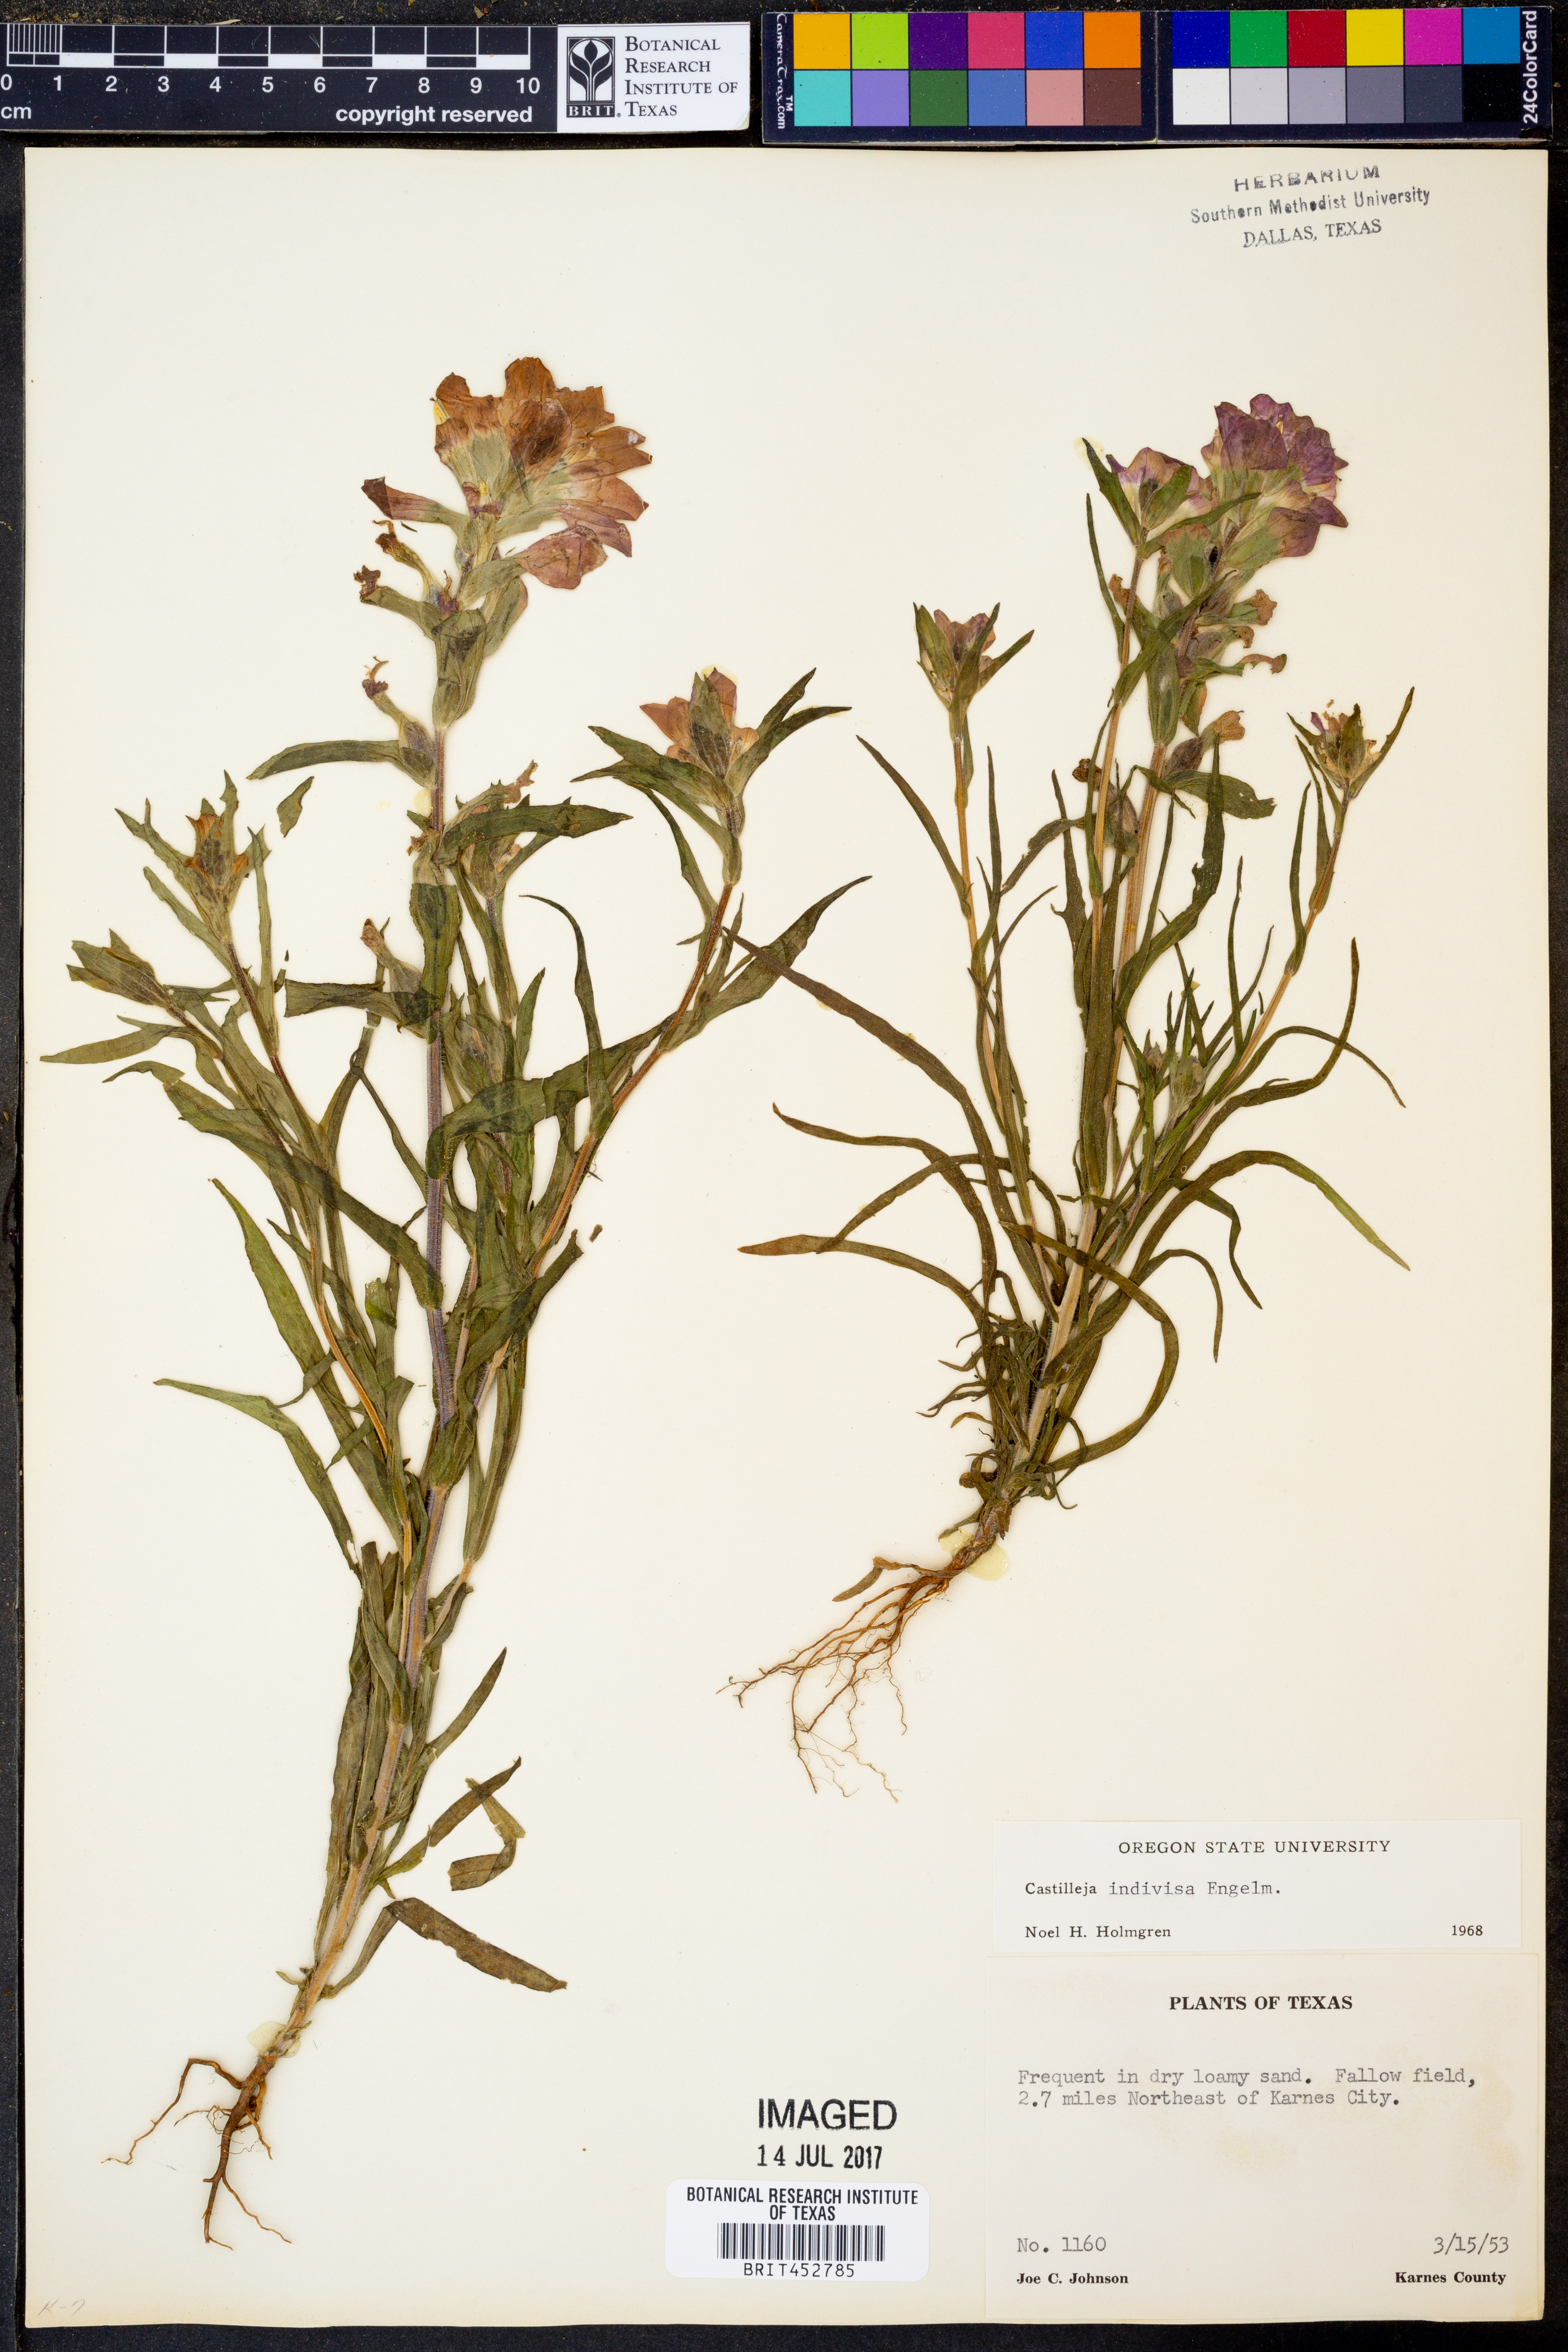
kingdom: Plantae
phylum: Tracheophyta
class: Magnoliopsida
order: Lamiales
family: Orobanchaceae
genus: Castilleja
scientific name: Castilleja indivisa
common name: Texas paintbrush
